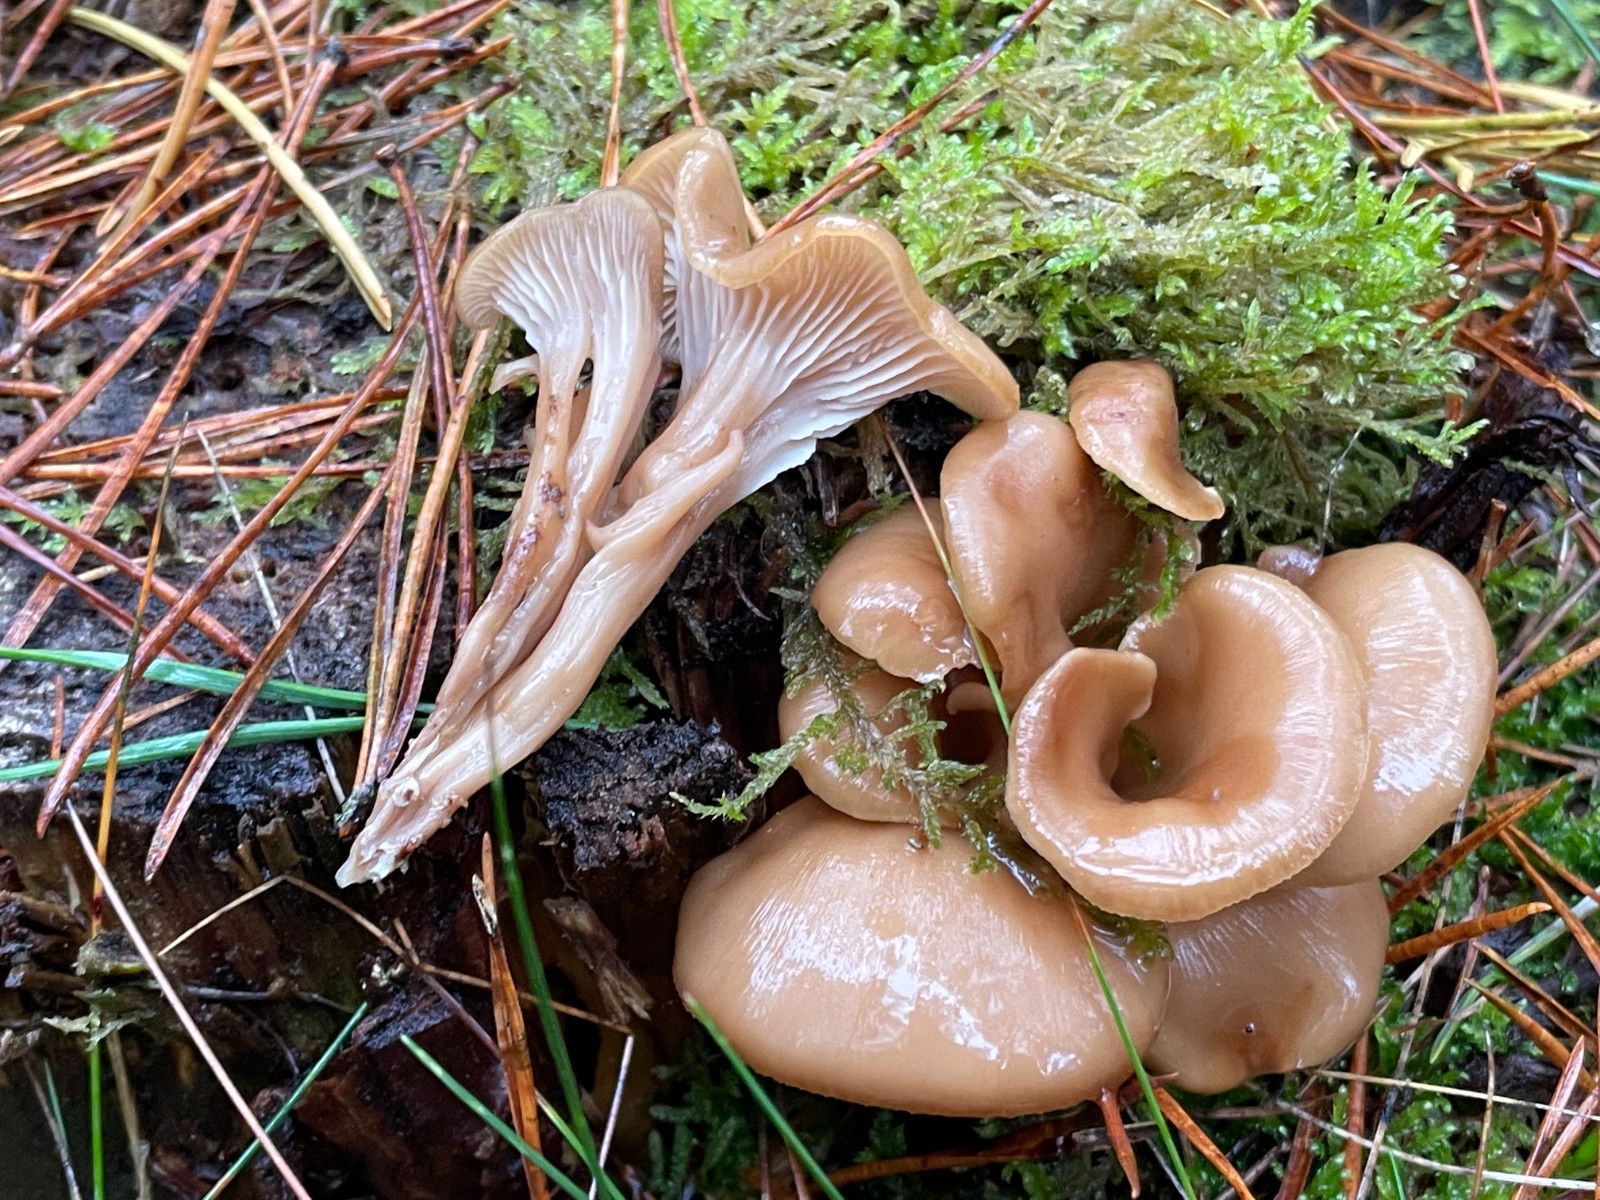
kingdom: Fungi
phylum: Basidiomycota
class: Agaricomycetes
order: Russulales
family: Auriscalpiaceae
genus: Lentinellus
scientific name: Lentinellus cochleatus
